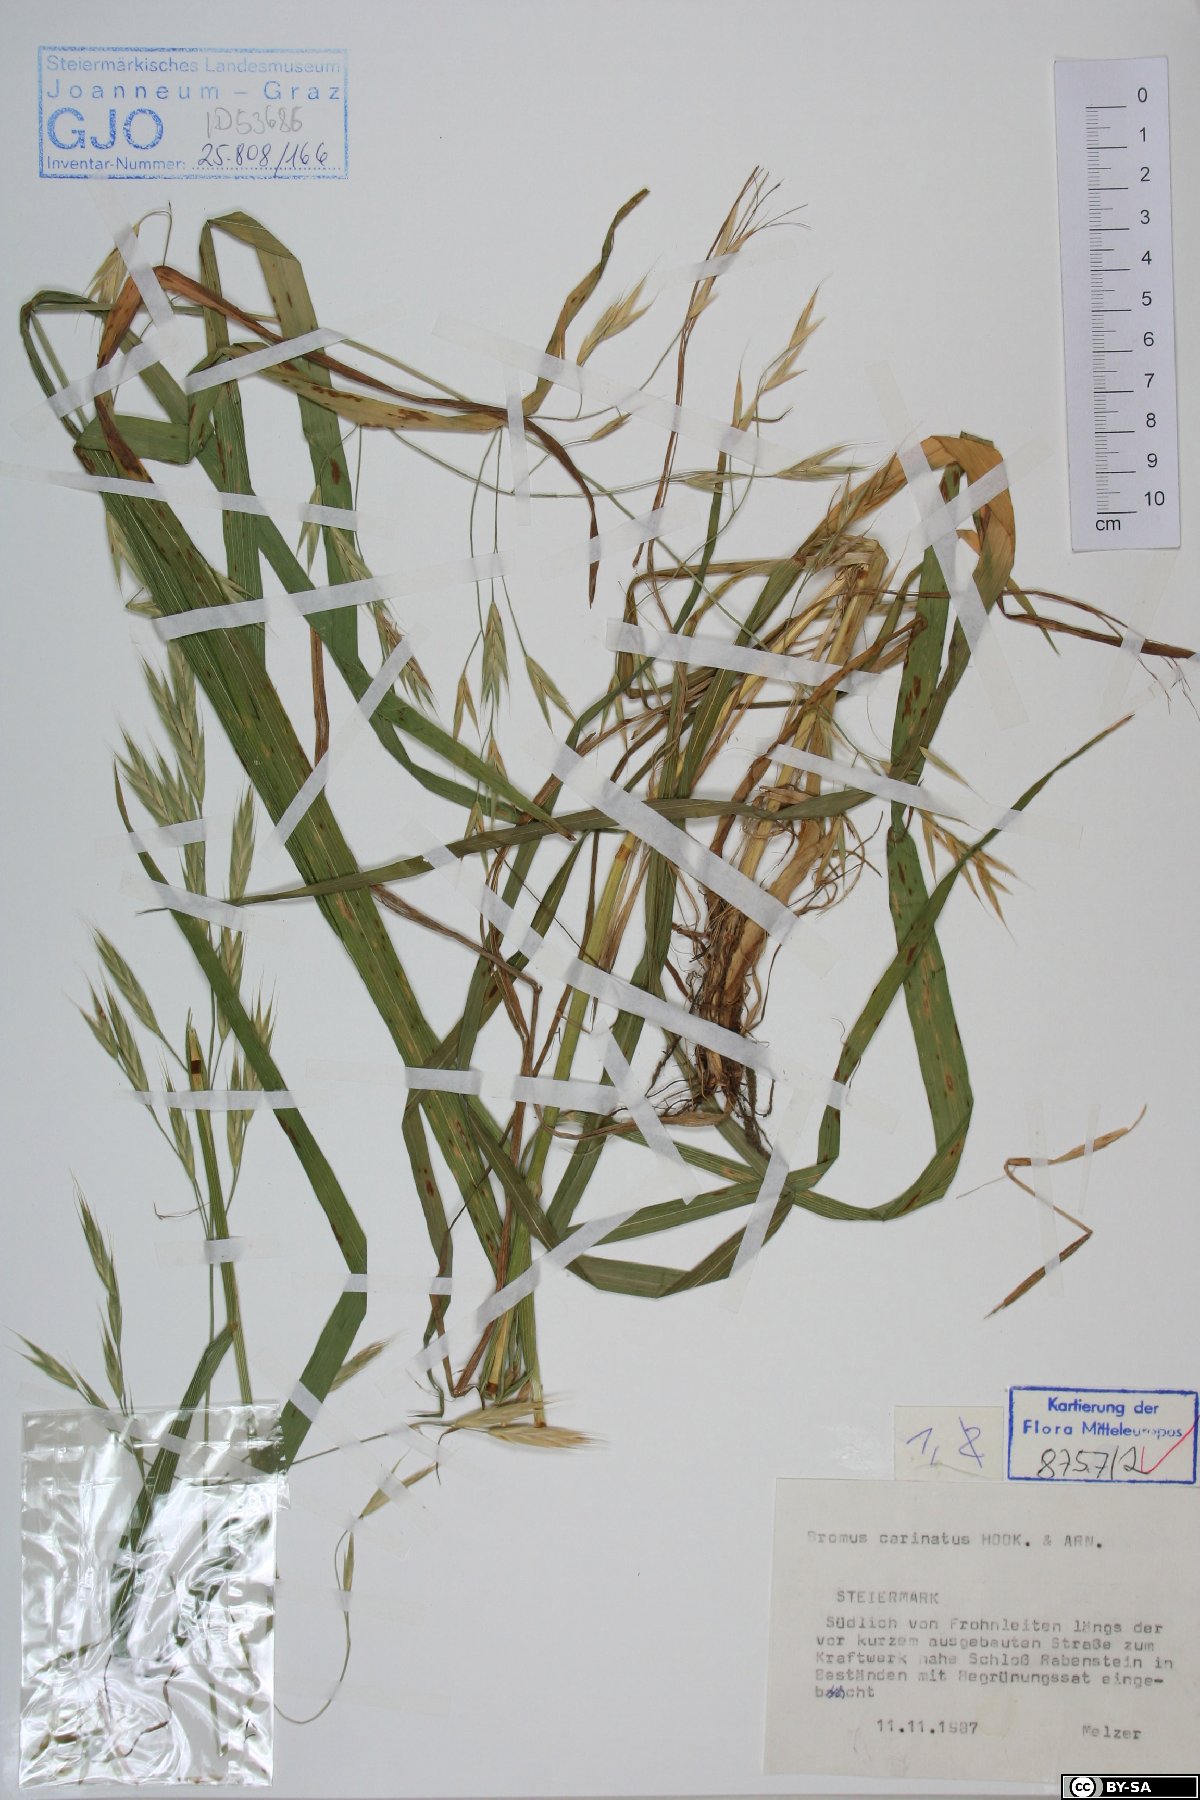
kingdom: Plantae
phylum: Tracheophyta
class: Liliopsida
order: Poales
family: Poaceae
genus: Bromus
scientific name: Bromus carinatus
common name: Mountain brome
